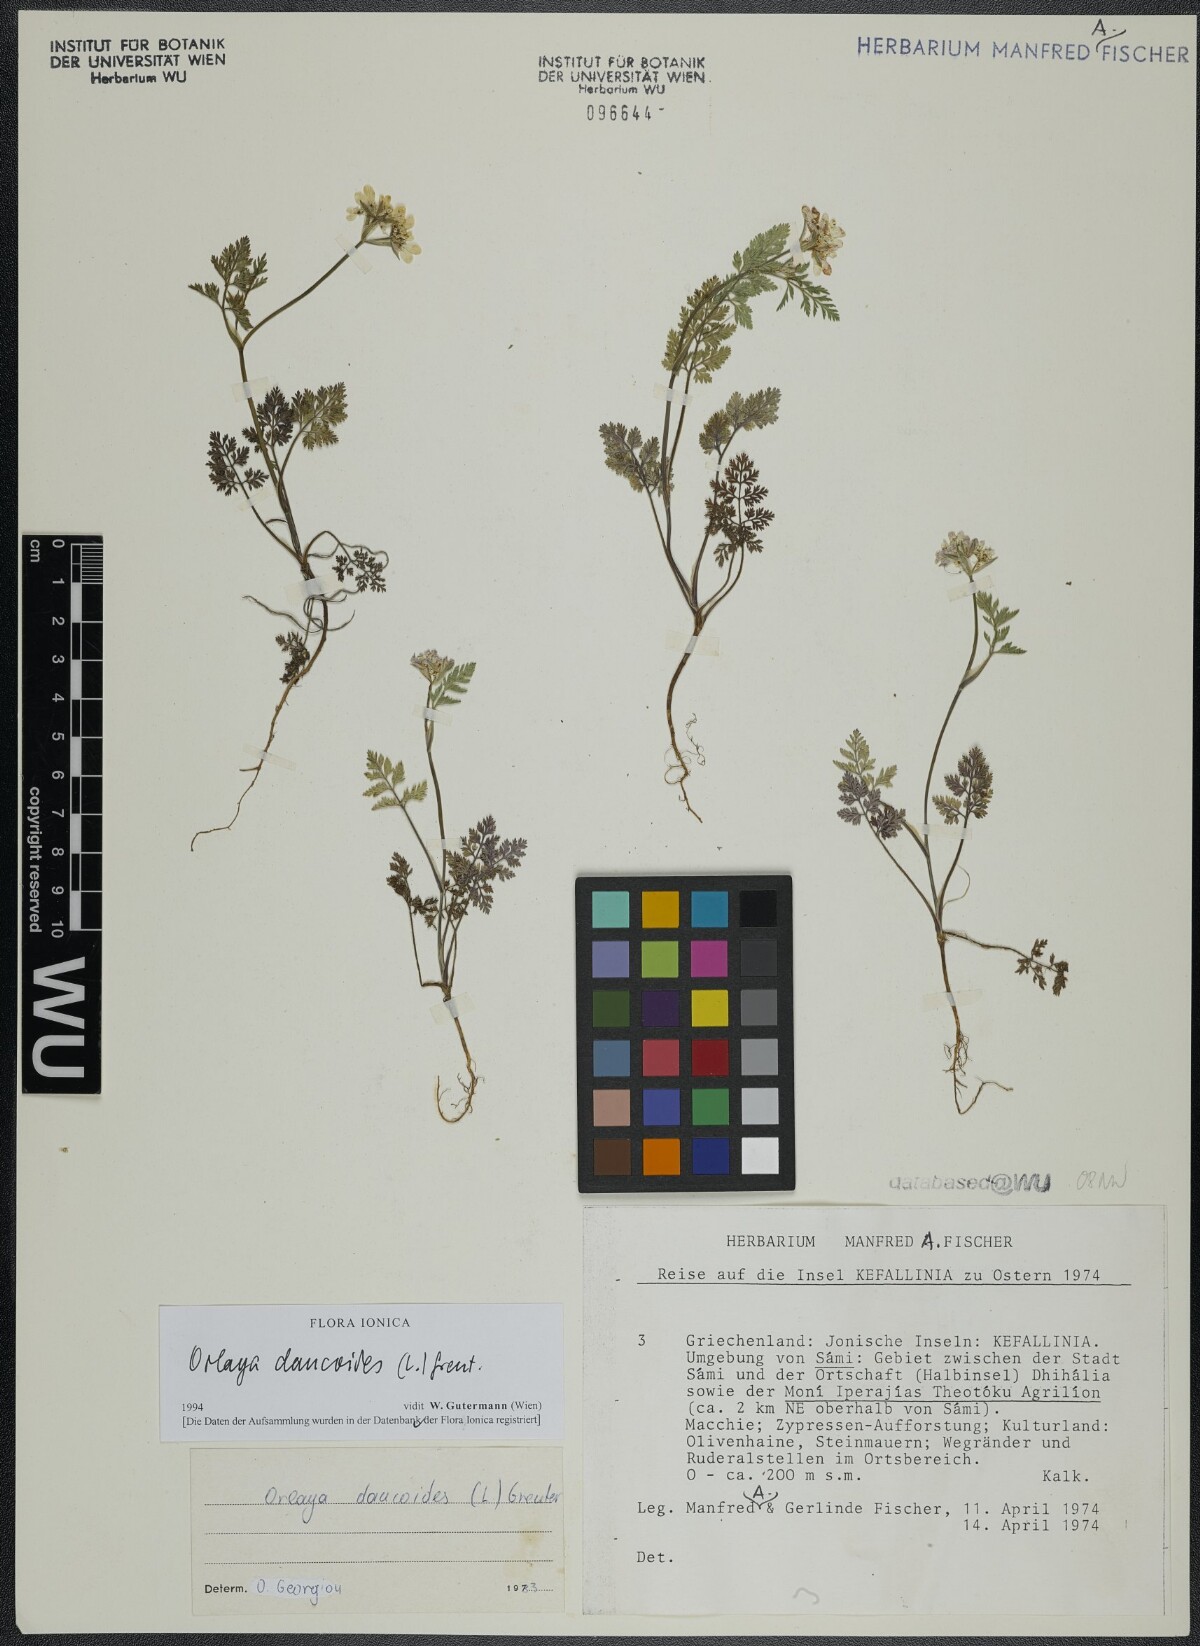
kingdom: Plantae
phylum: Tracheophyta
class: Magnoliopsida
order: Apiales
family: Apiaceae
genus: Orlaya
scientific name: Orlaya daucoides
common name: Flat-fruit orlaya
